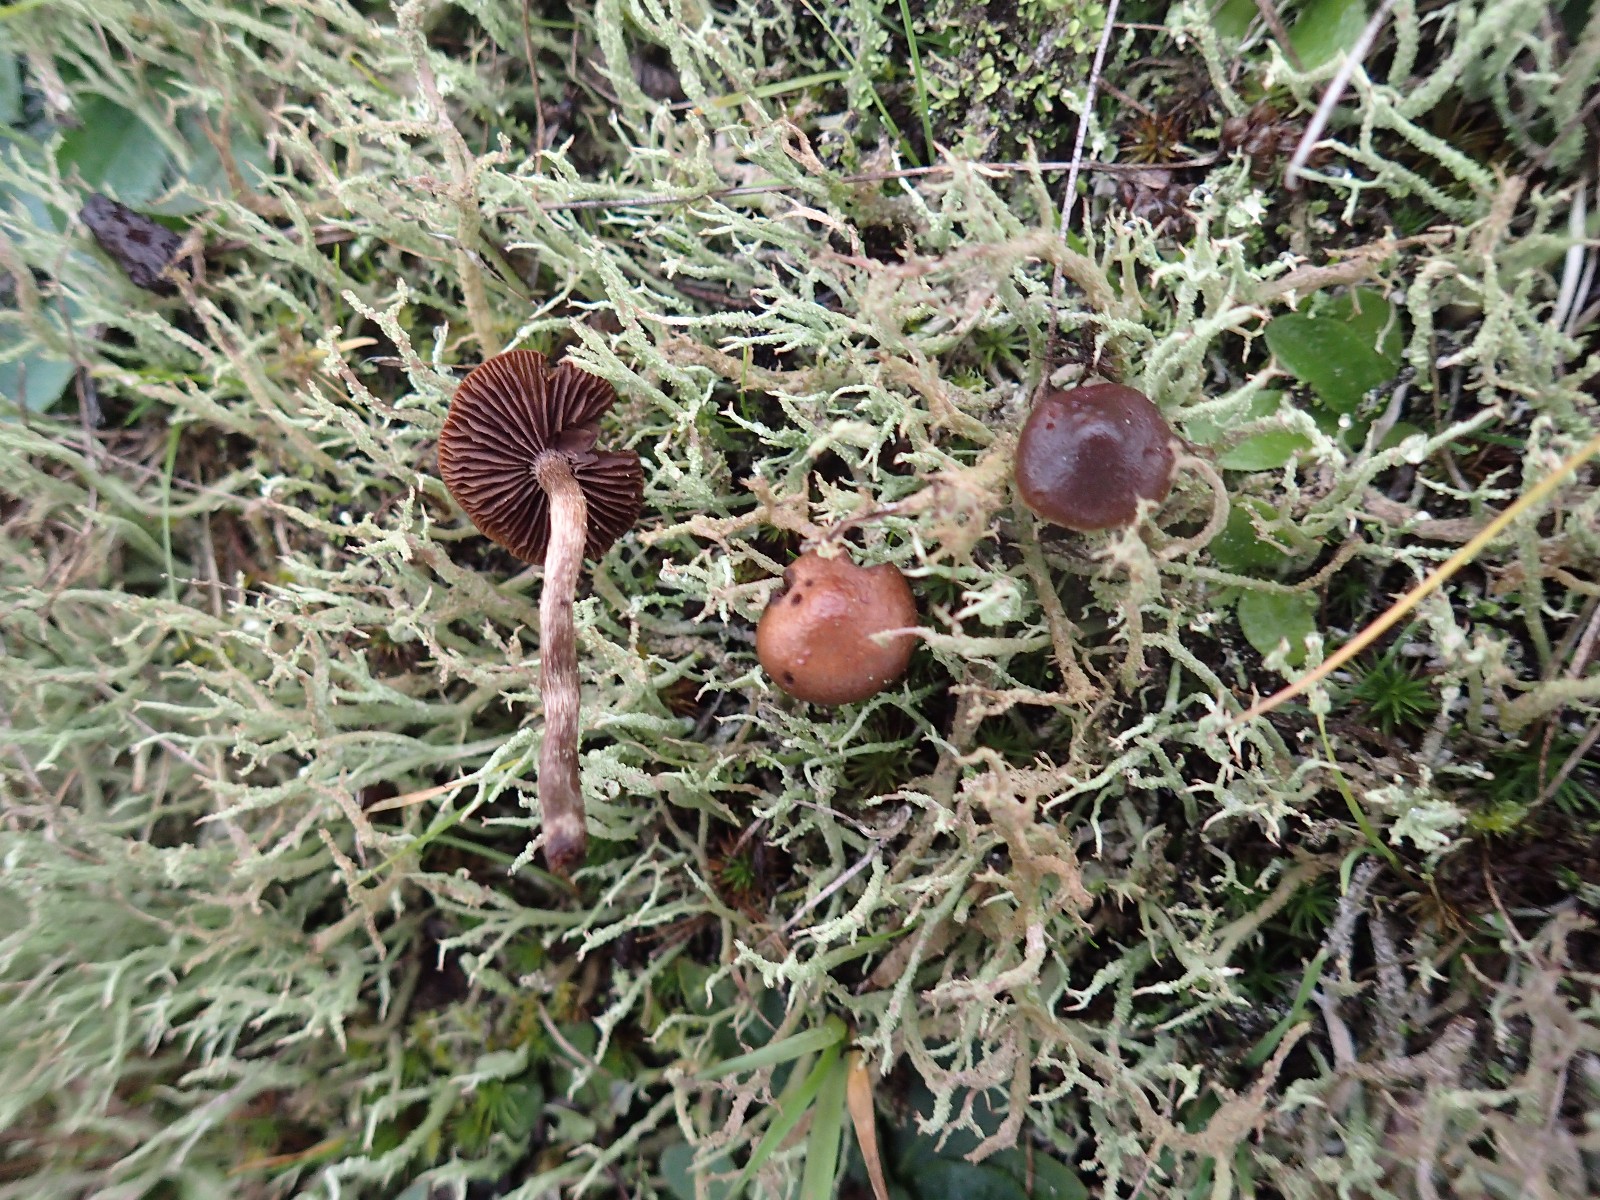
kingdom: Fungi
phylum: Basidiomycota
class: Agaricomycetes
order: Agaricales
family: Strophariaceae
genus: Deconica
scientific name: Deconica montana
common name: rødbrun stråhat
